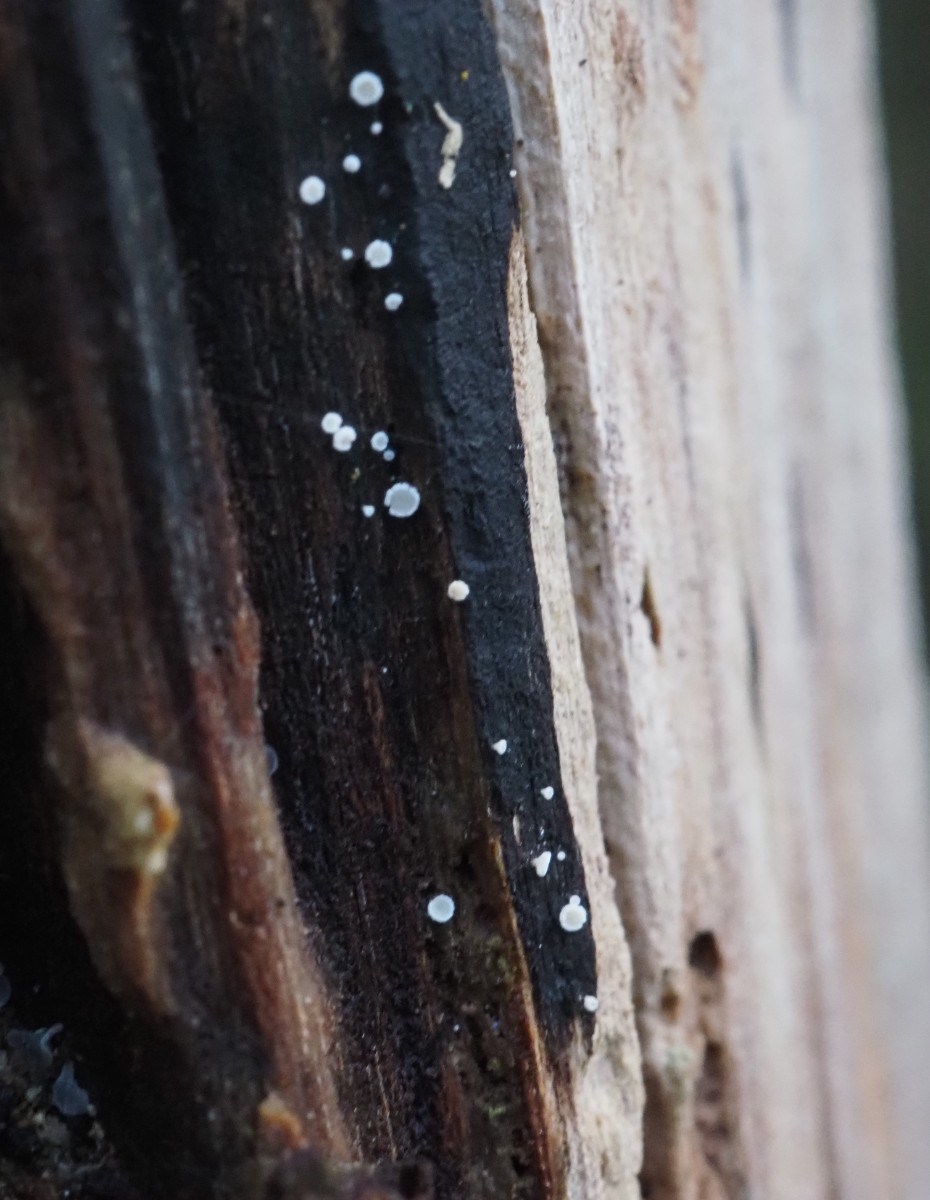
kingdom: Fungi
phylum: Ascomycota
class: Leotiomycetes
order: Helotiales
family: Hyaloscyphaceae
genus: Polydesmia
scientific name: Polydesmia pruinosa
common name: dunskive
